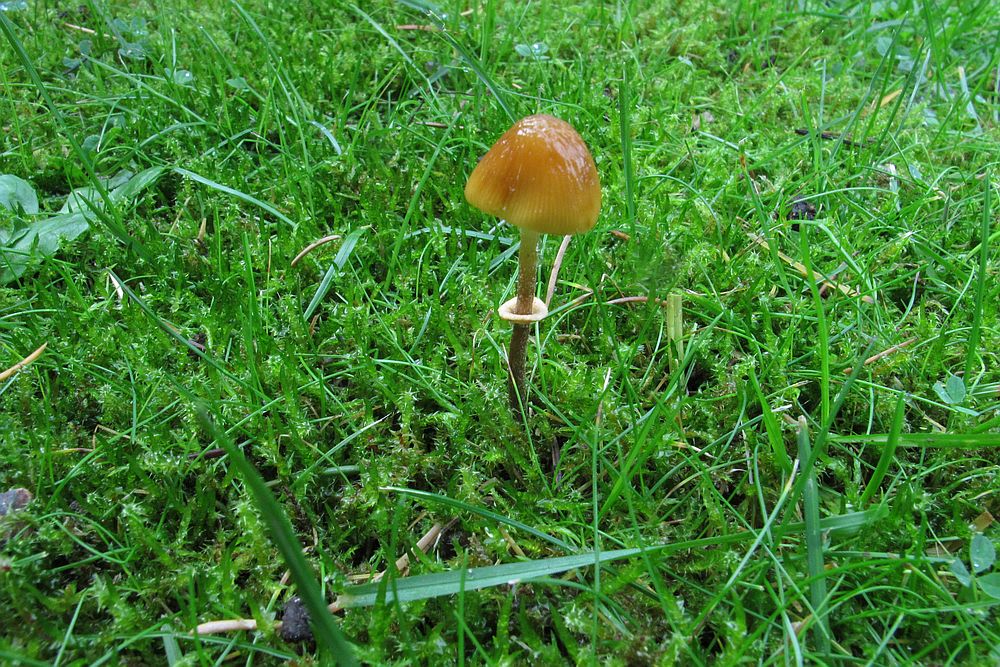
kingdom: Fungi
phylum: Basidiomycota
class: Agaricomycetes
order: Agaricales
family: Bolbitiaceae
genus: Pholiotina
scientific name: Pholiotina teneroides
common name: tosporet dansehat
